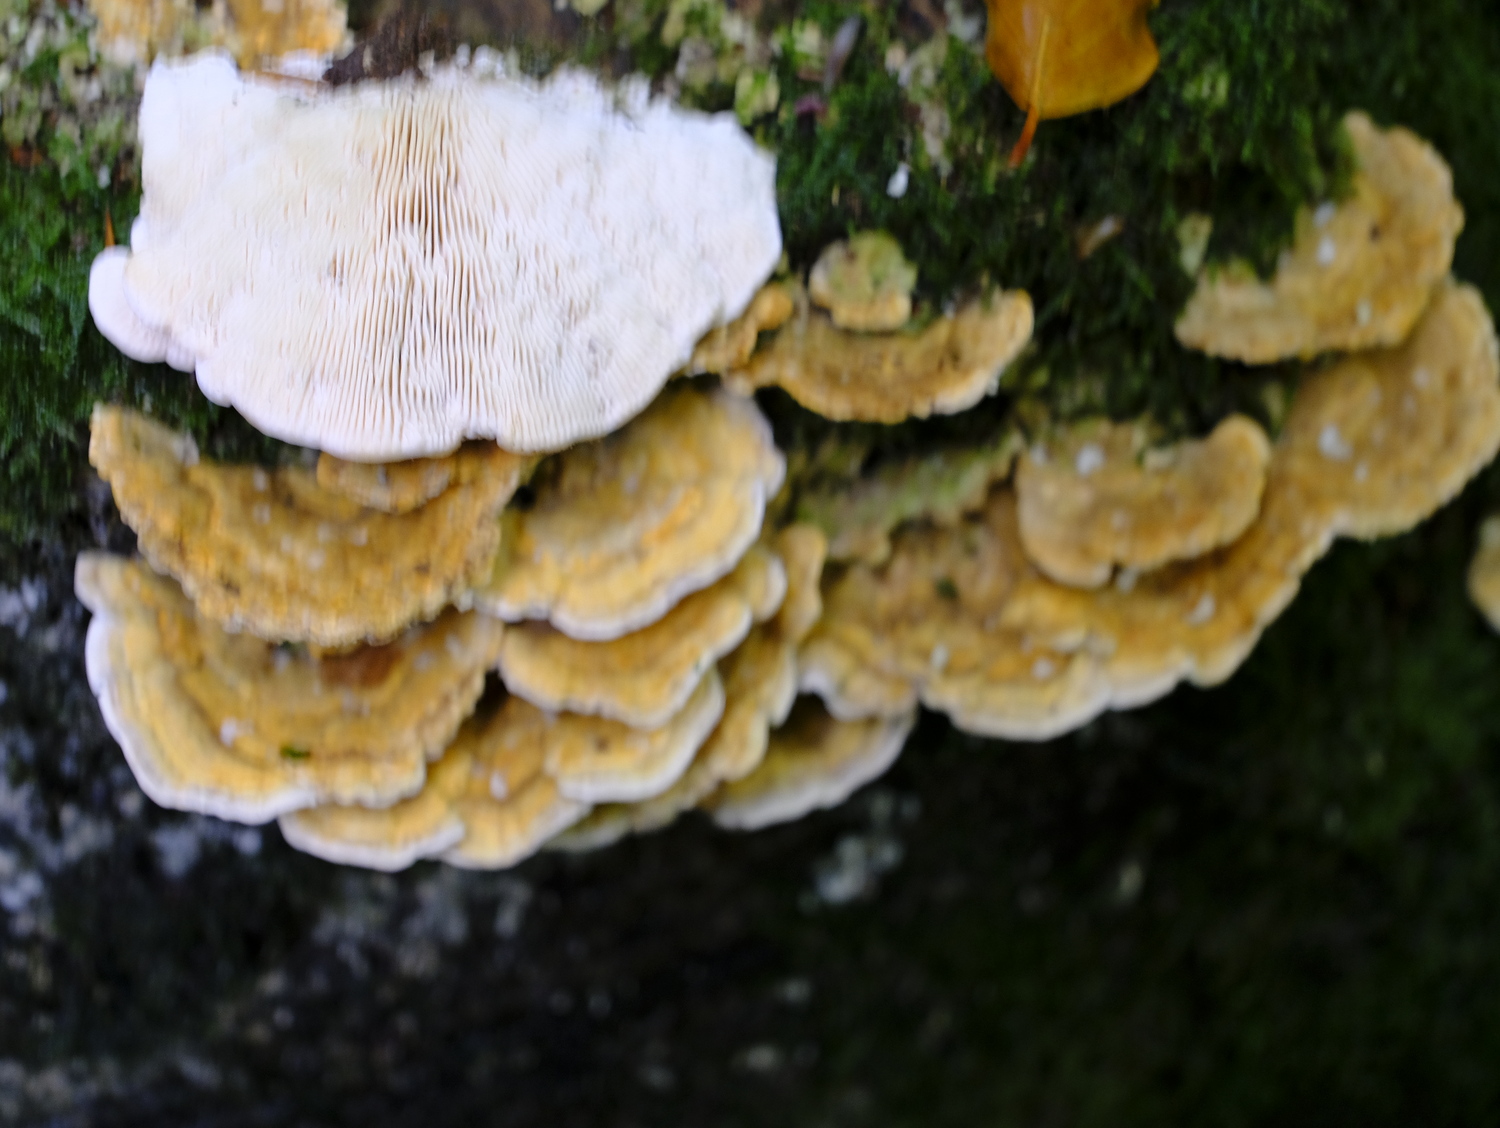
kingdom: Fungi
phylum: Basidiomycota
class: Agaricomycetes
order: Polyporales
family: Polyporaceae
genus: Lenzites
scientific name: Lenzites betulinus
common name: birke-læderporesvamp
